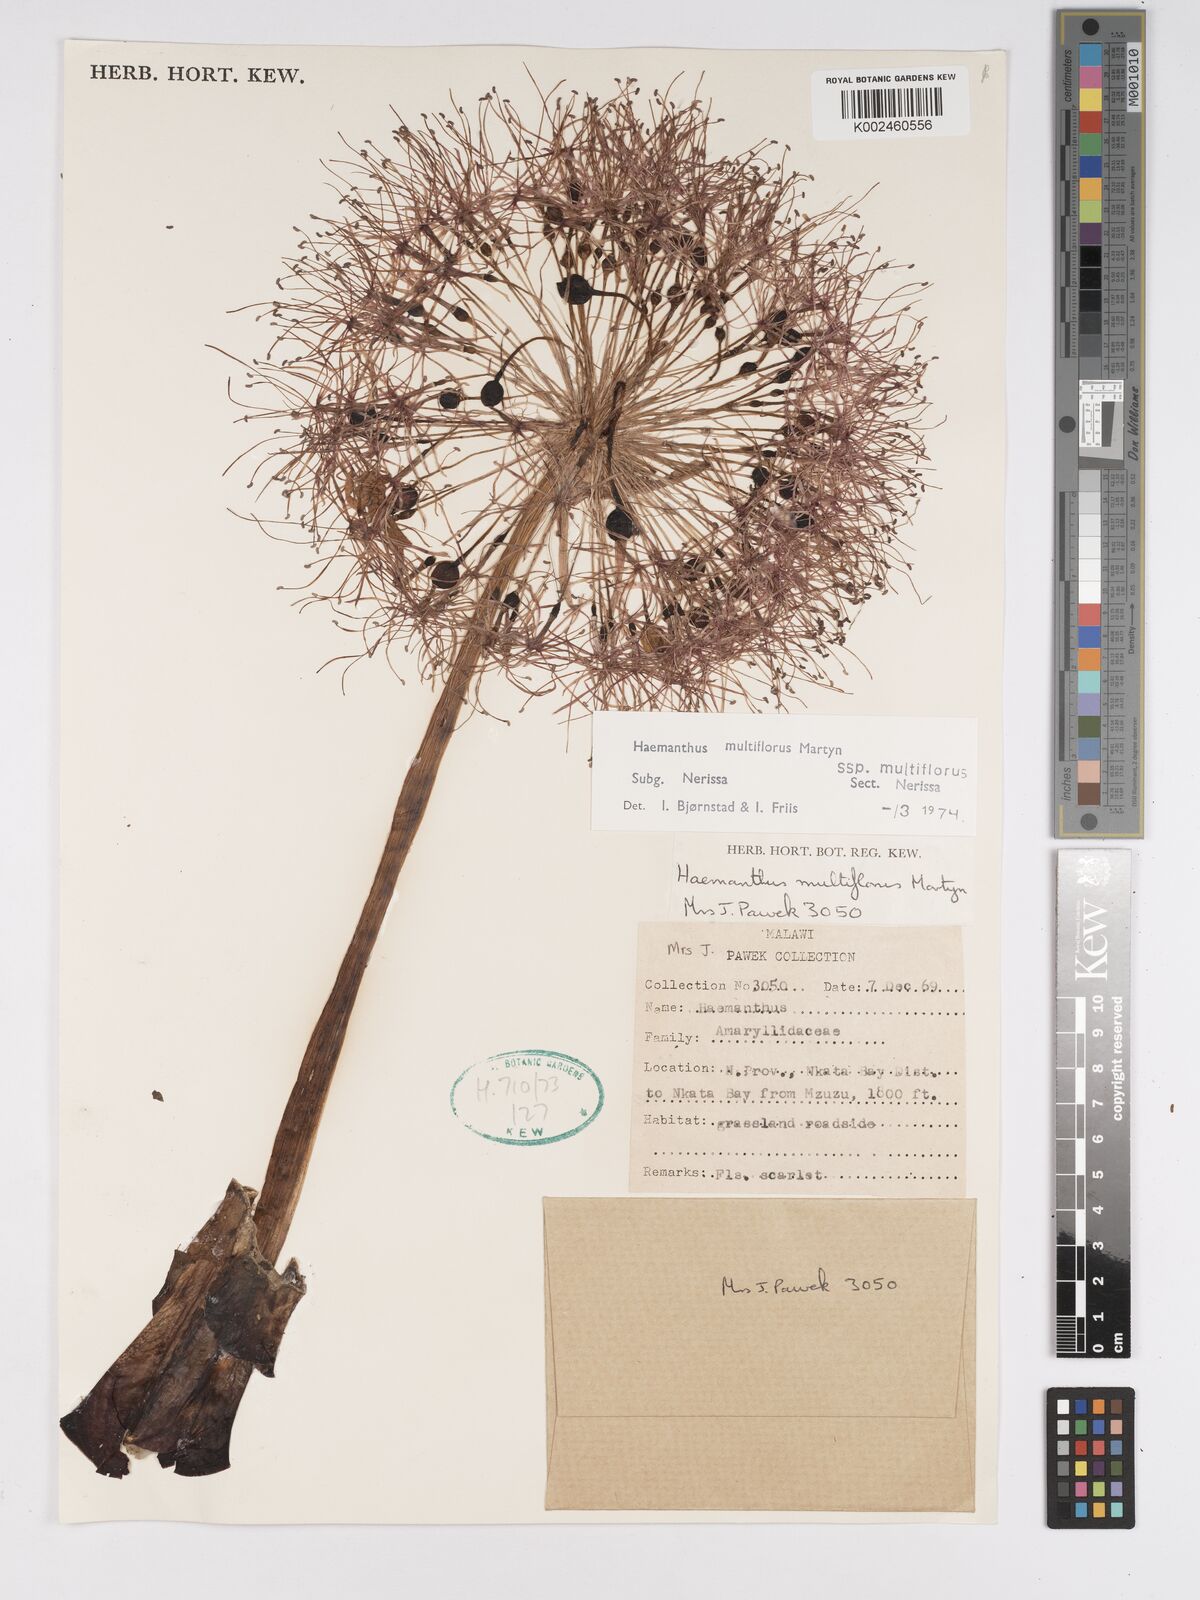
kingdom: Plantae
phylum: Tracheophyta
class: Liliopsida
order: Asparagales
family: Amaryllidaceae
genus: Scadoxus
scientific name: Scadoxus multiflorus
